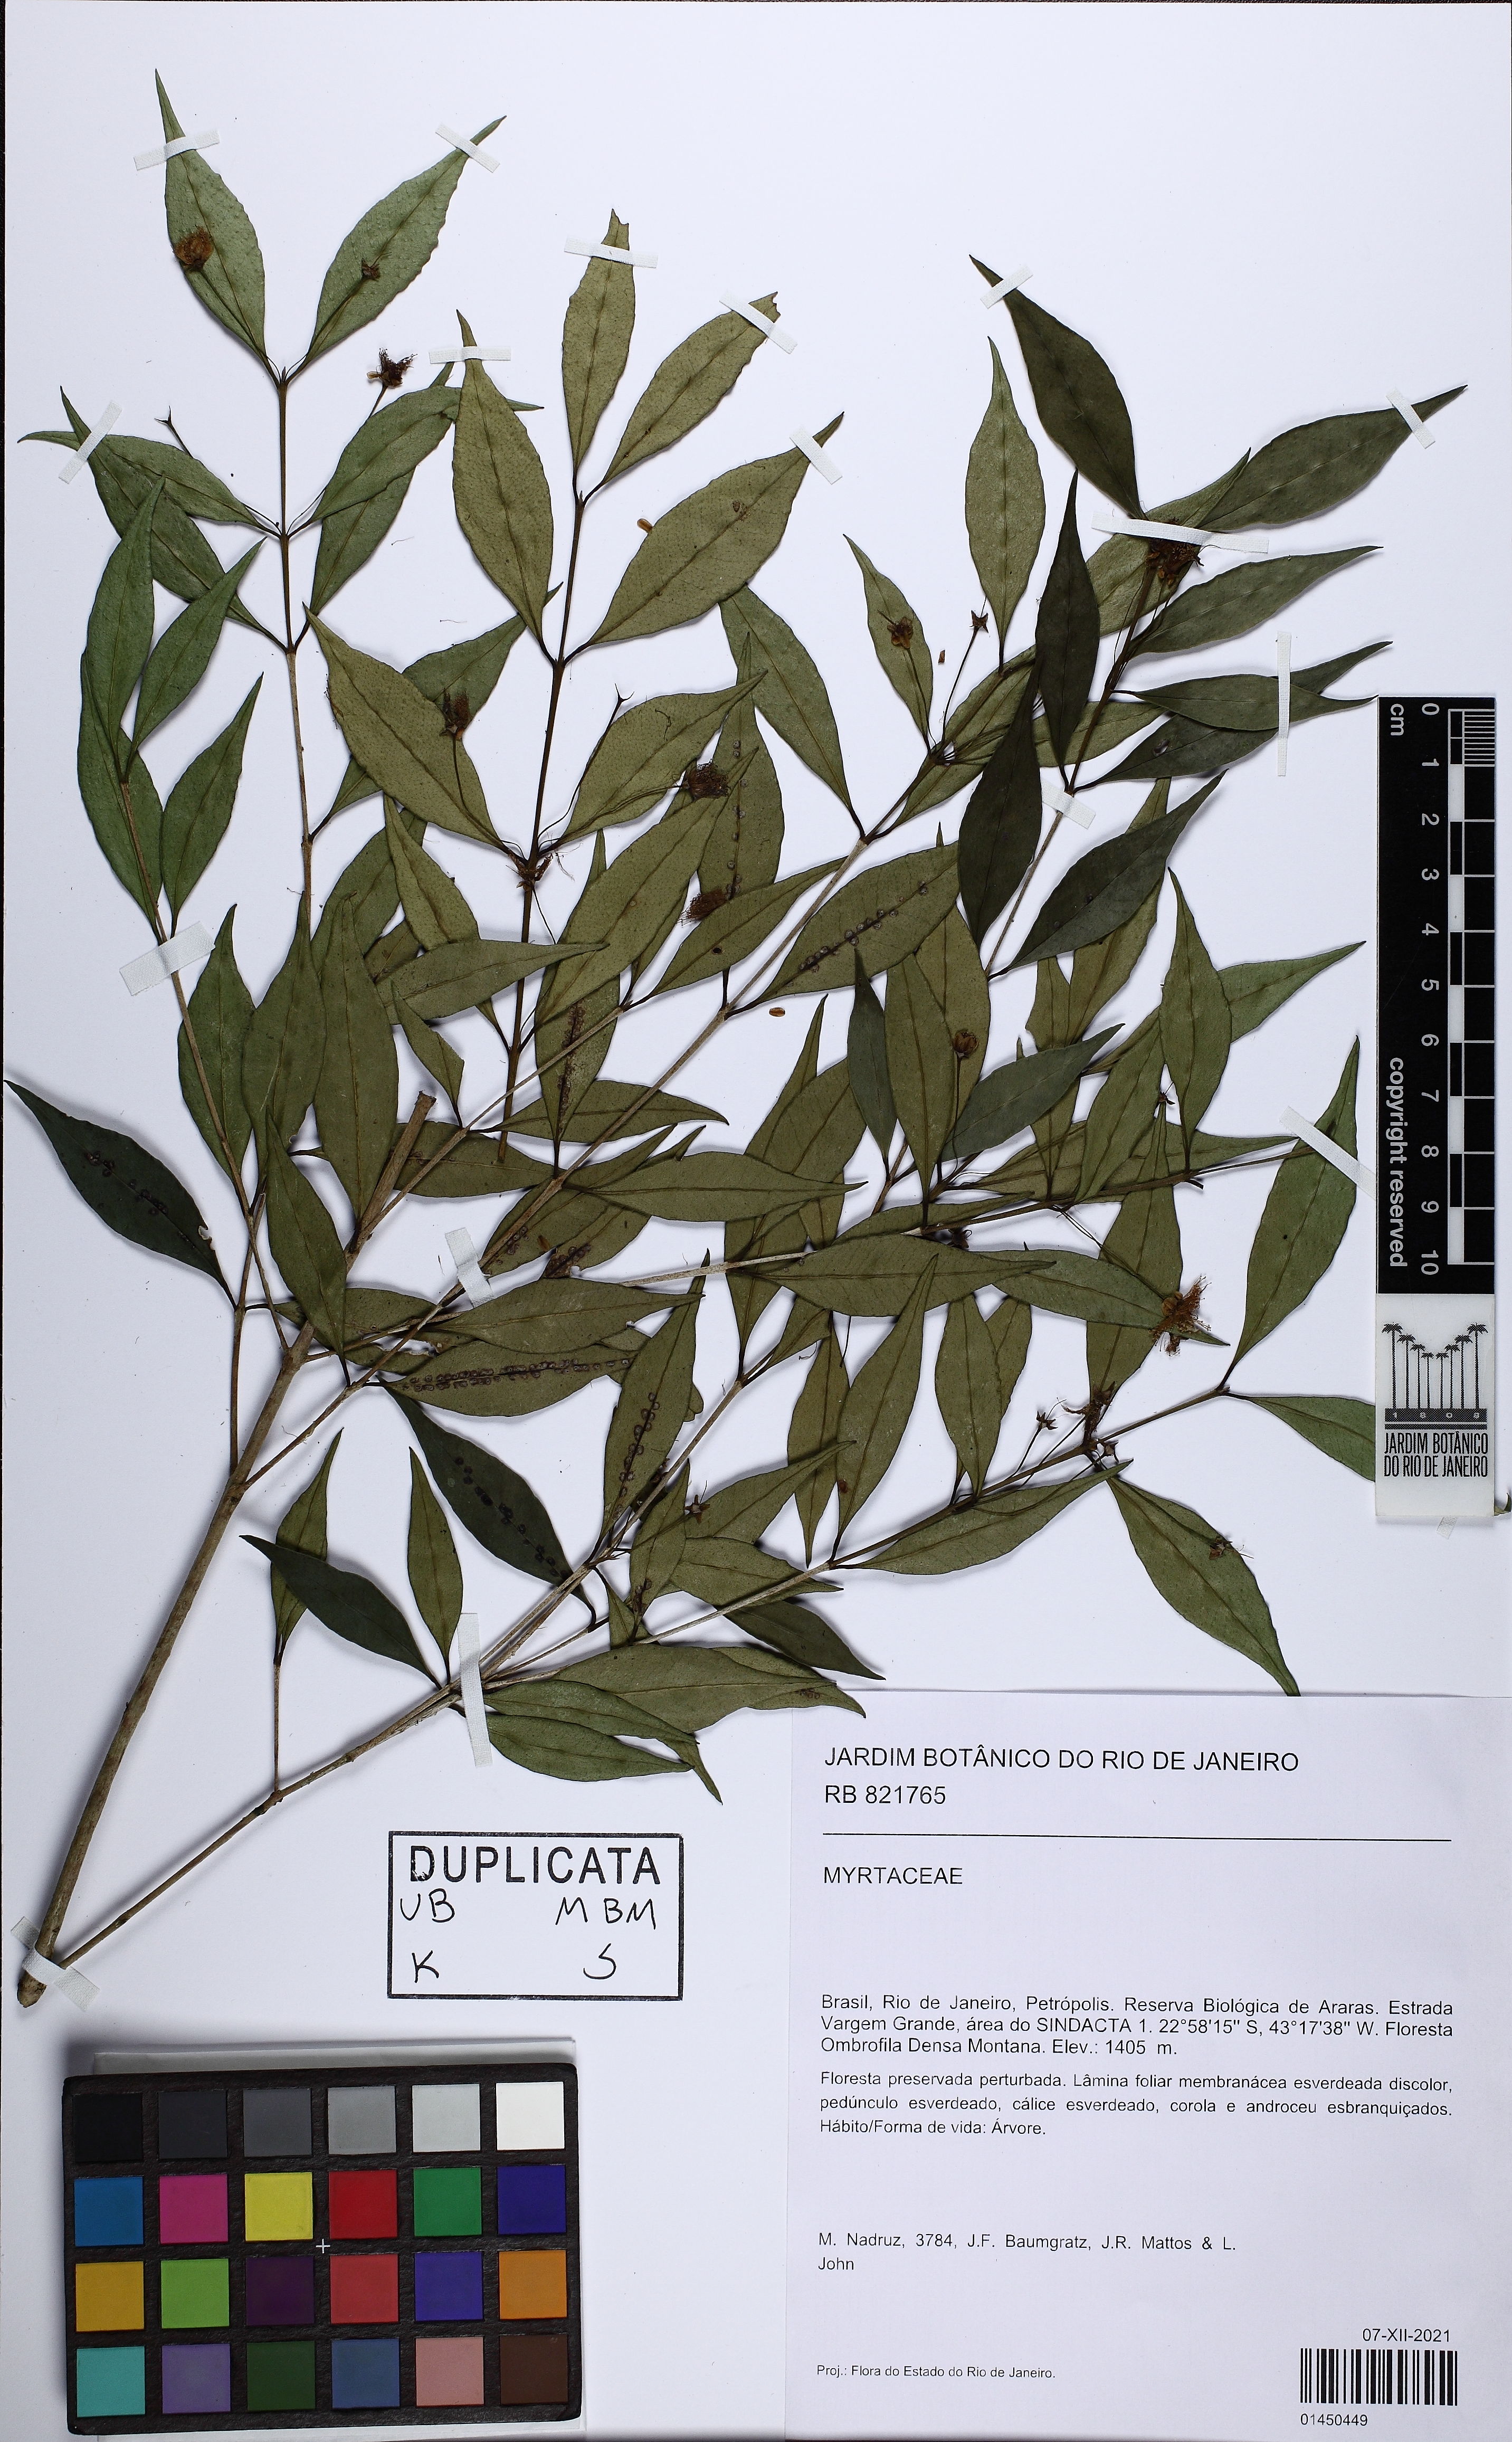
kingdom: Plantae
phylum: Tracheophyta
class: Magnoliopsida
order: Myrtales
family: Myrtaceae
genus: Myrceugenia
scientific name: Myrceugenia
